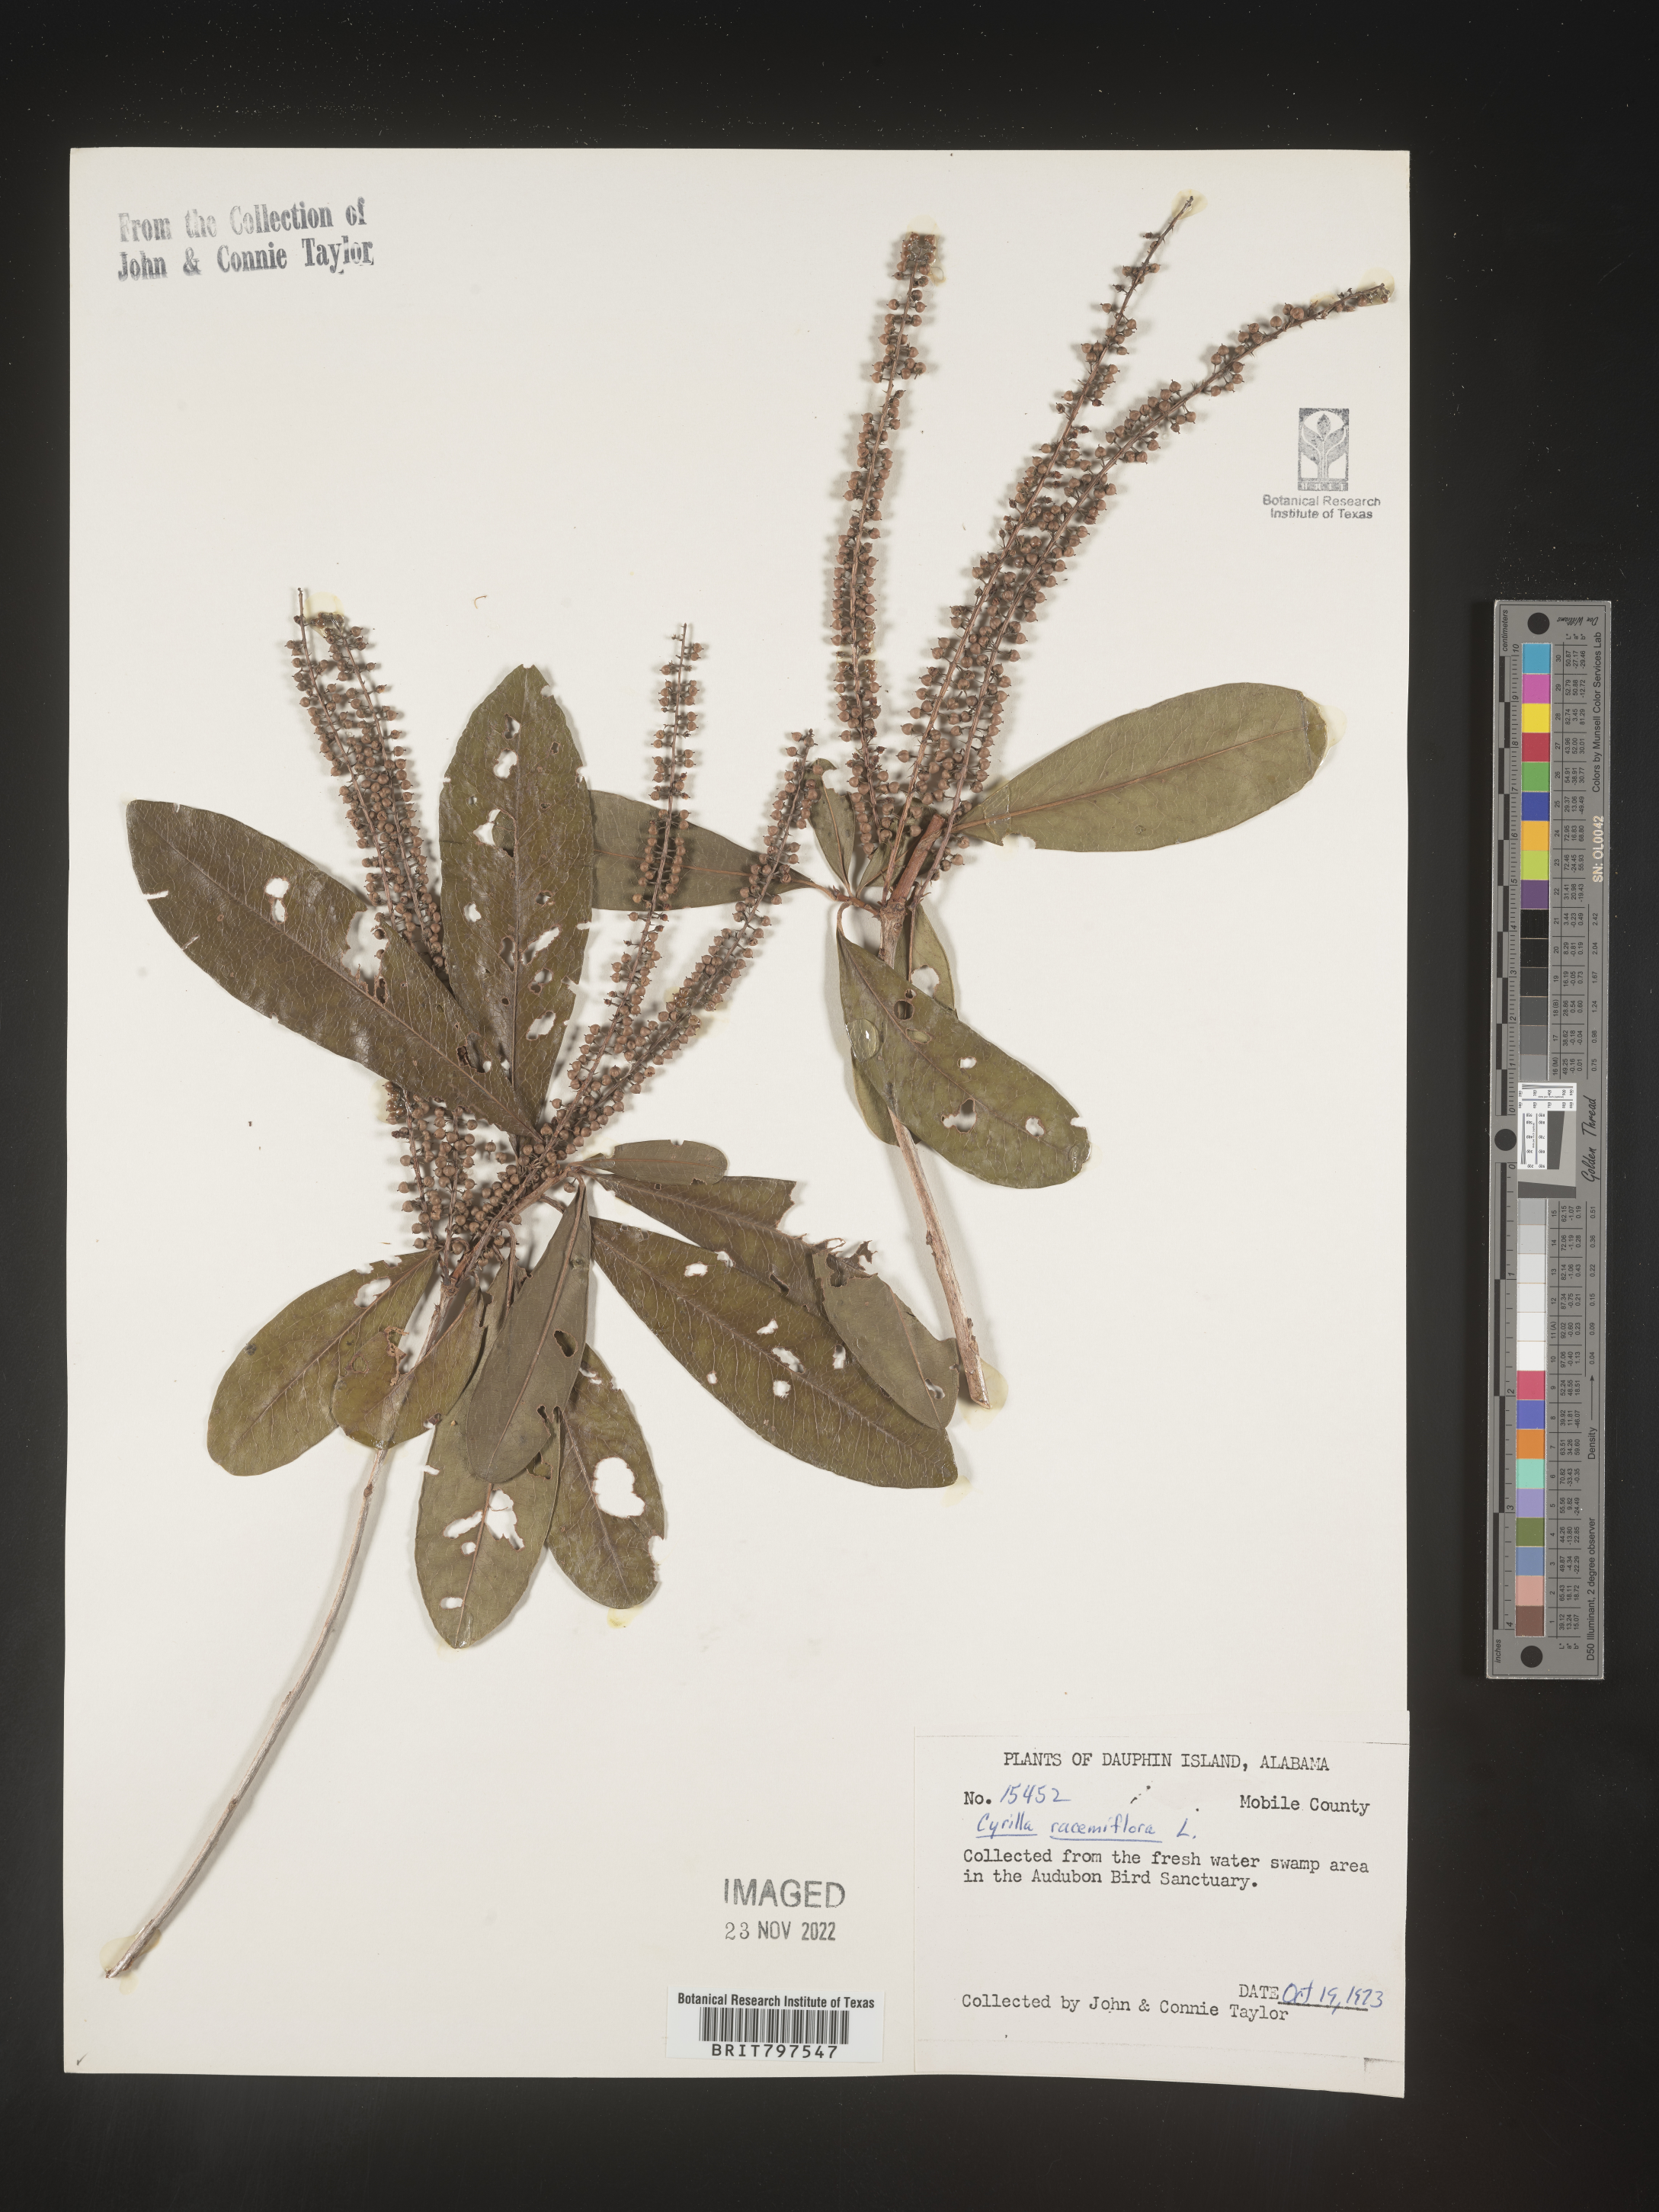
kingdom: Plantae
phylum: Tracheophyta
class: Magnoliopsida
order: Ericales
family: Cyrillaceae
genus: Cyrilla
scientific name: Cyrilla racemiflora
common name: Black titi
